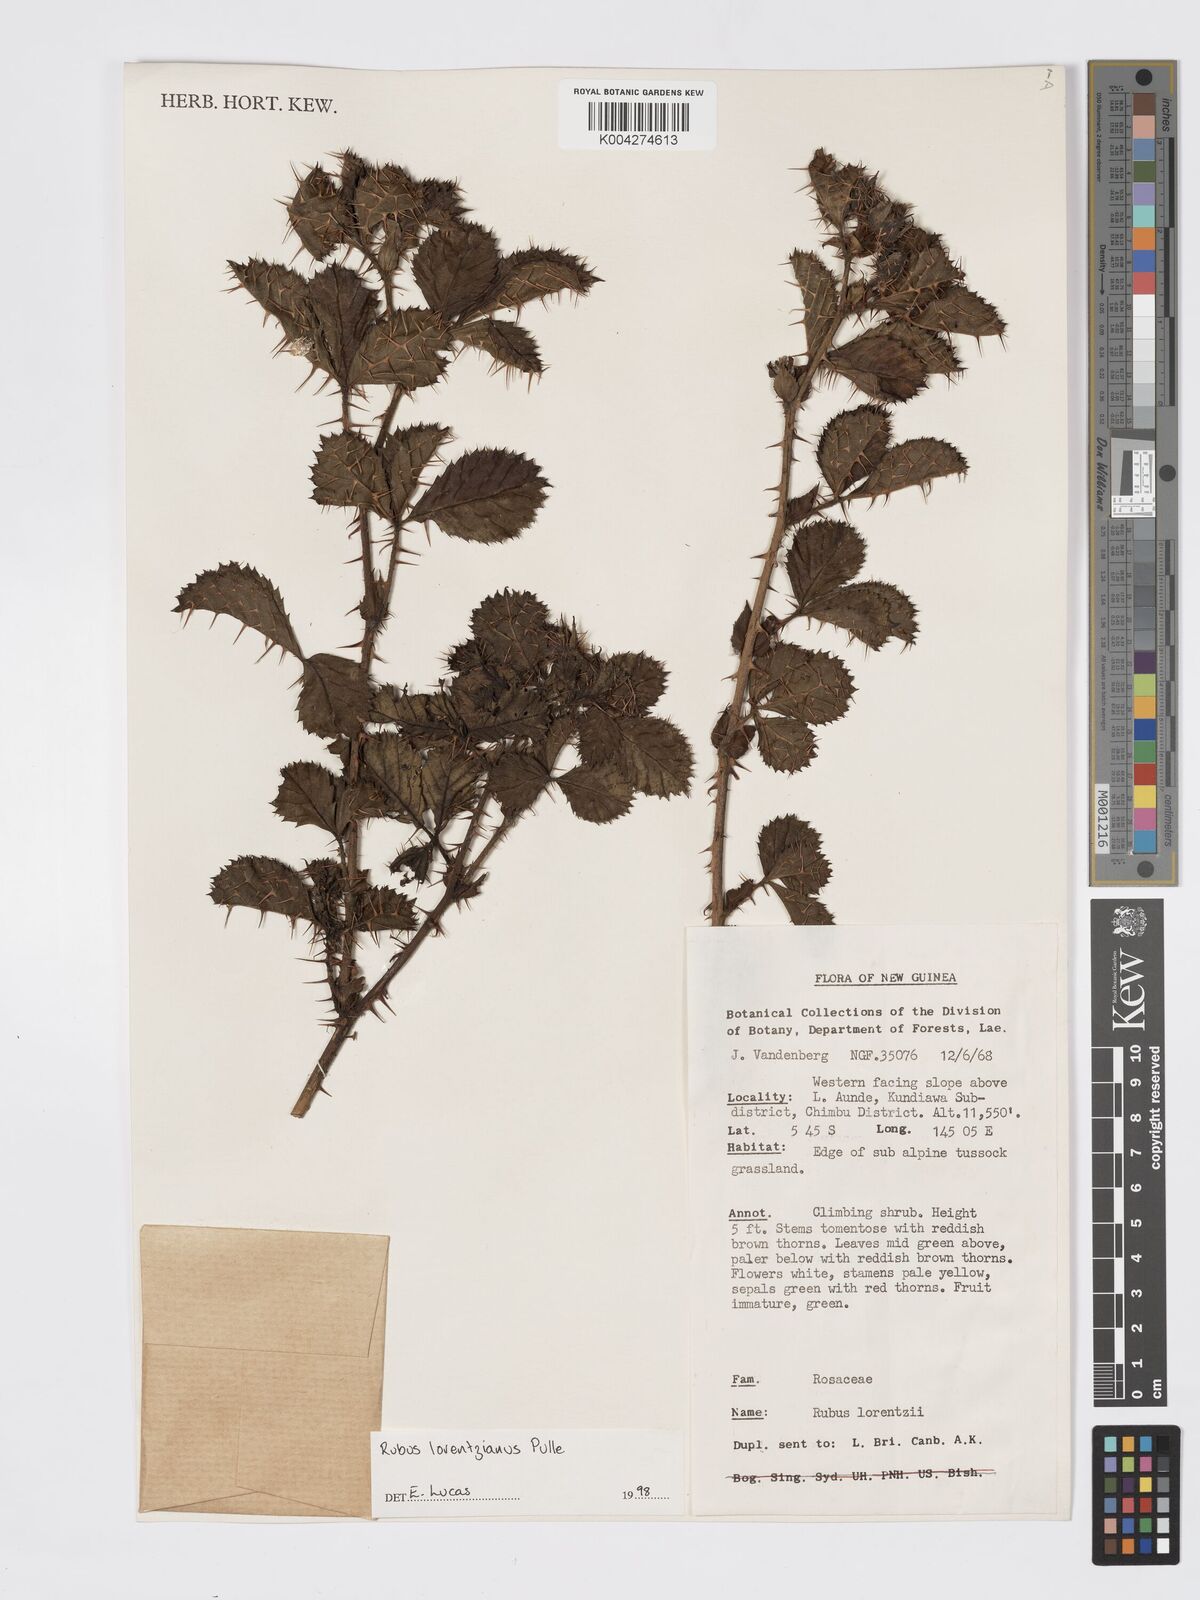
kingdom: Plantae
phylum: Tracheophyta
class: Magnoliopsida
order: Rosales
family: Rosaceae
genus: Rubus
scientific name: Rubus lorentzianus
